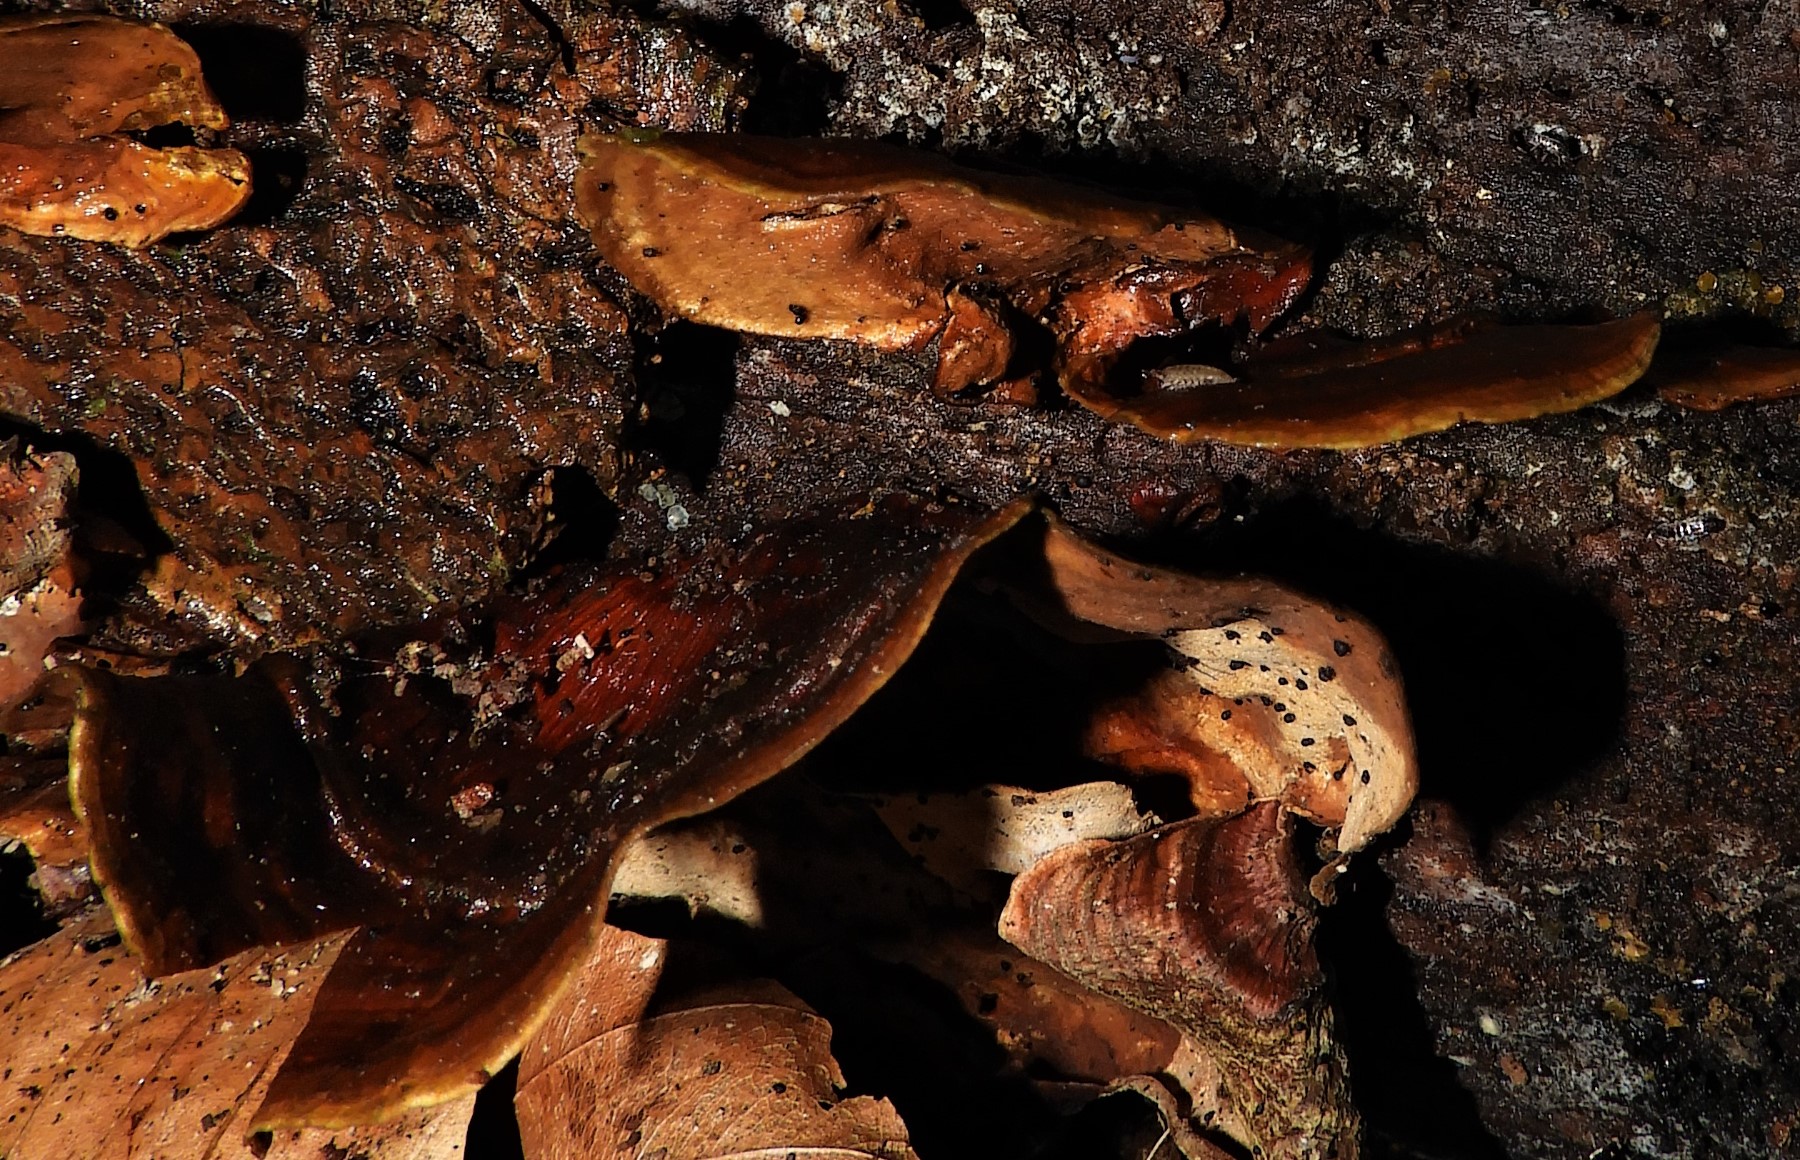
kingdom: Fungi
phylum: Basidiomycota
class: Agaricomycetes
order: Russulales
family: Stereaceae
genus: Stereum
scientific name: Stereum subtomentosum
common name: smuk lædersvamp
